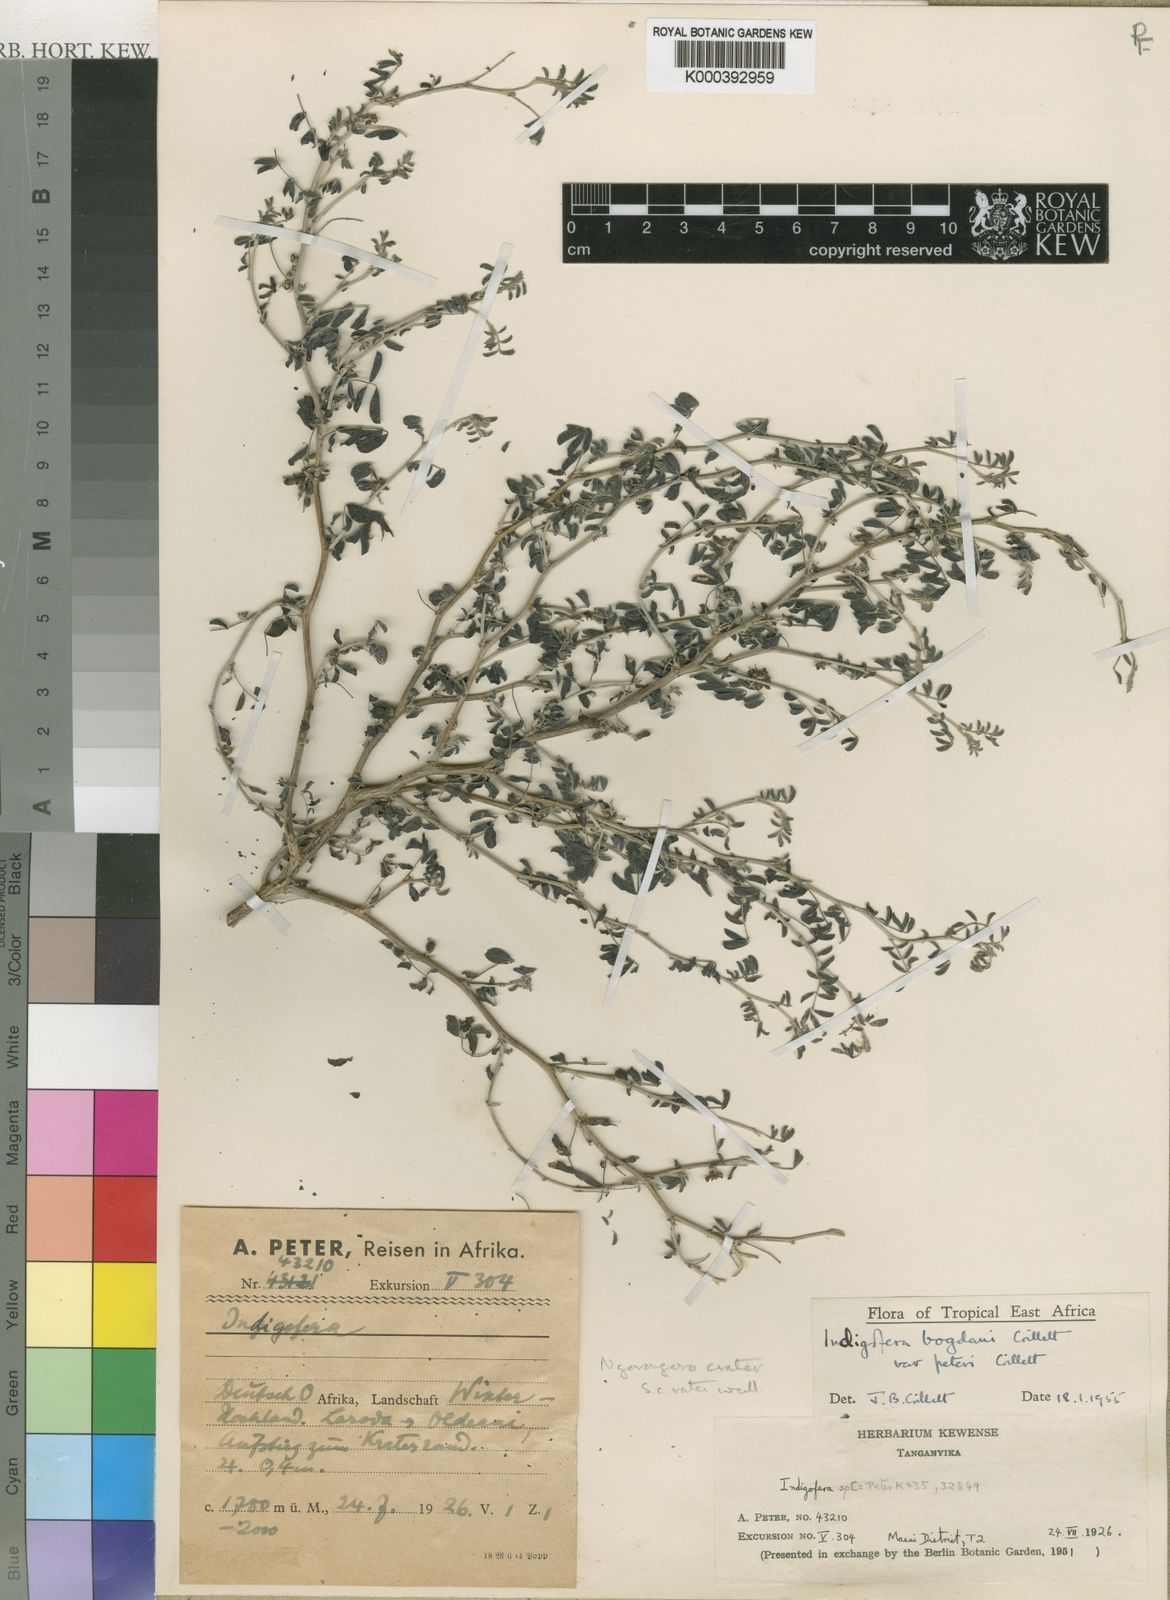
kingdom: Plantae
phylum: Tracheophyta
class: Magnoliopsida
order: Fabales
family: Fabaceae
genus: Indigofera
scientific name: Indigofera bogdanii
